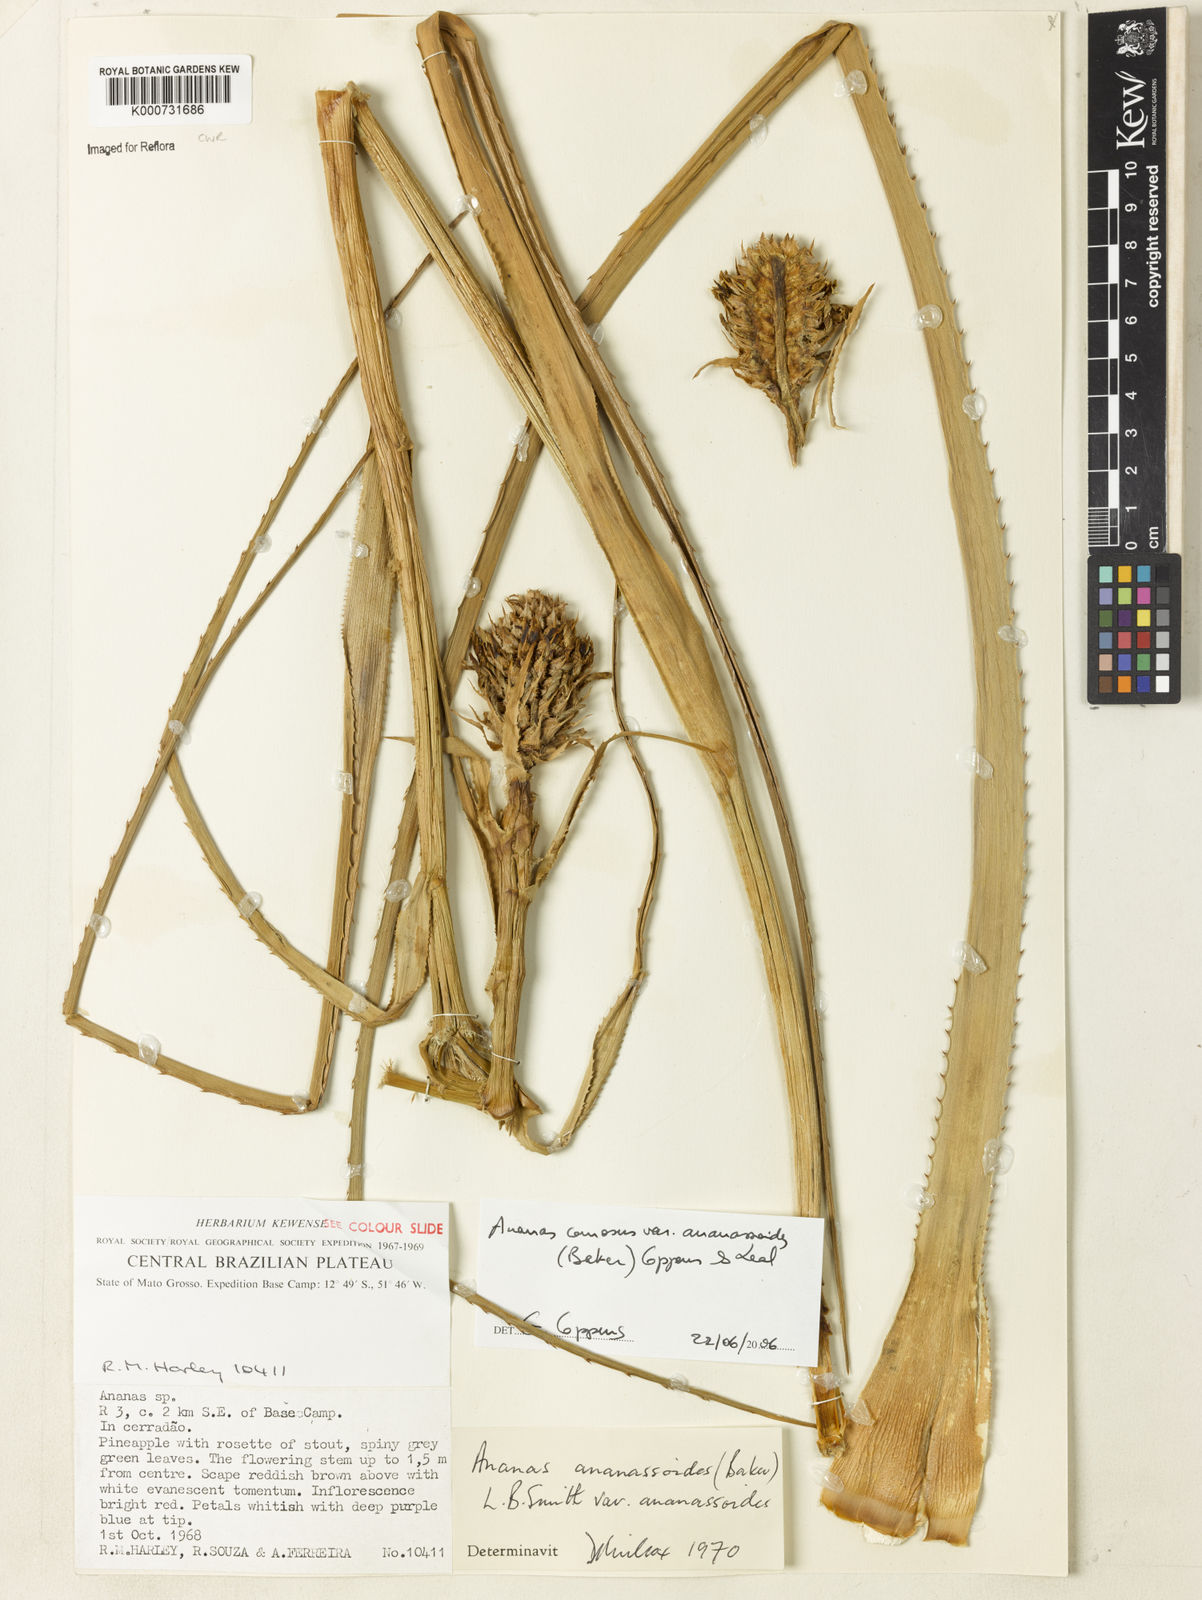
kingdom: Plantae
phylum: Tracheophyta
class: Liliopsida
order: Poales
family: Bromeliaceae
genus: Ananas
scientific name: Ananas comosus
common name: Pineapple
